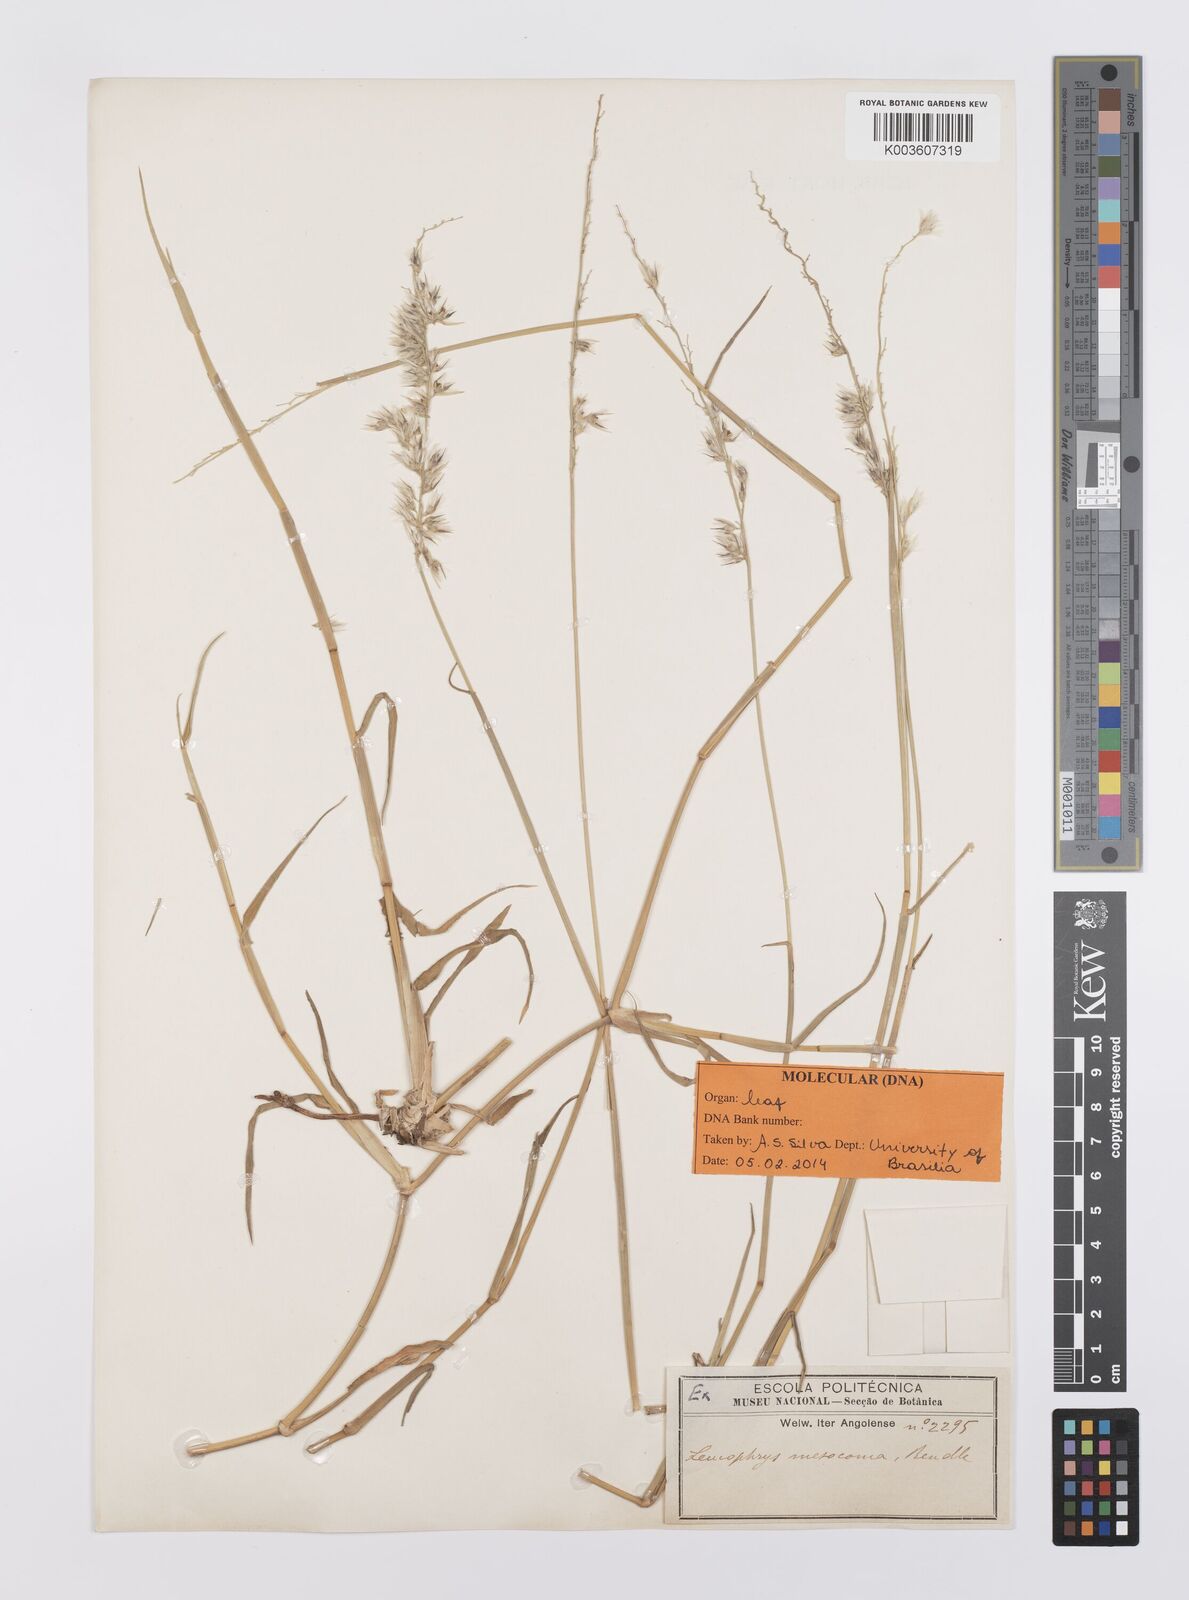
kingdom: Plantae
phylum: Tracheophyta
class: Liliopsida
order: Poales
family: Poaceae
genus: Urochloa
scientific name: Urochloa Brachiaria mesocoma
